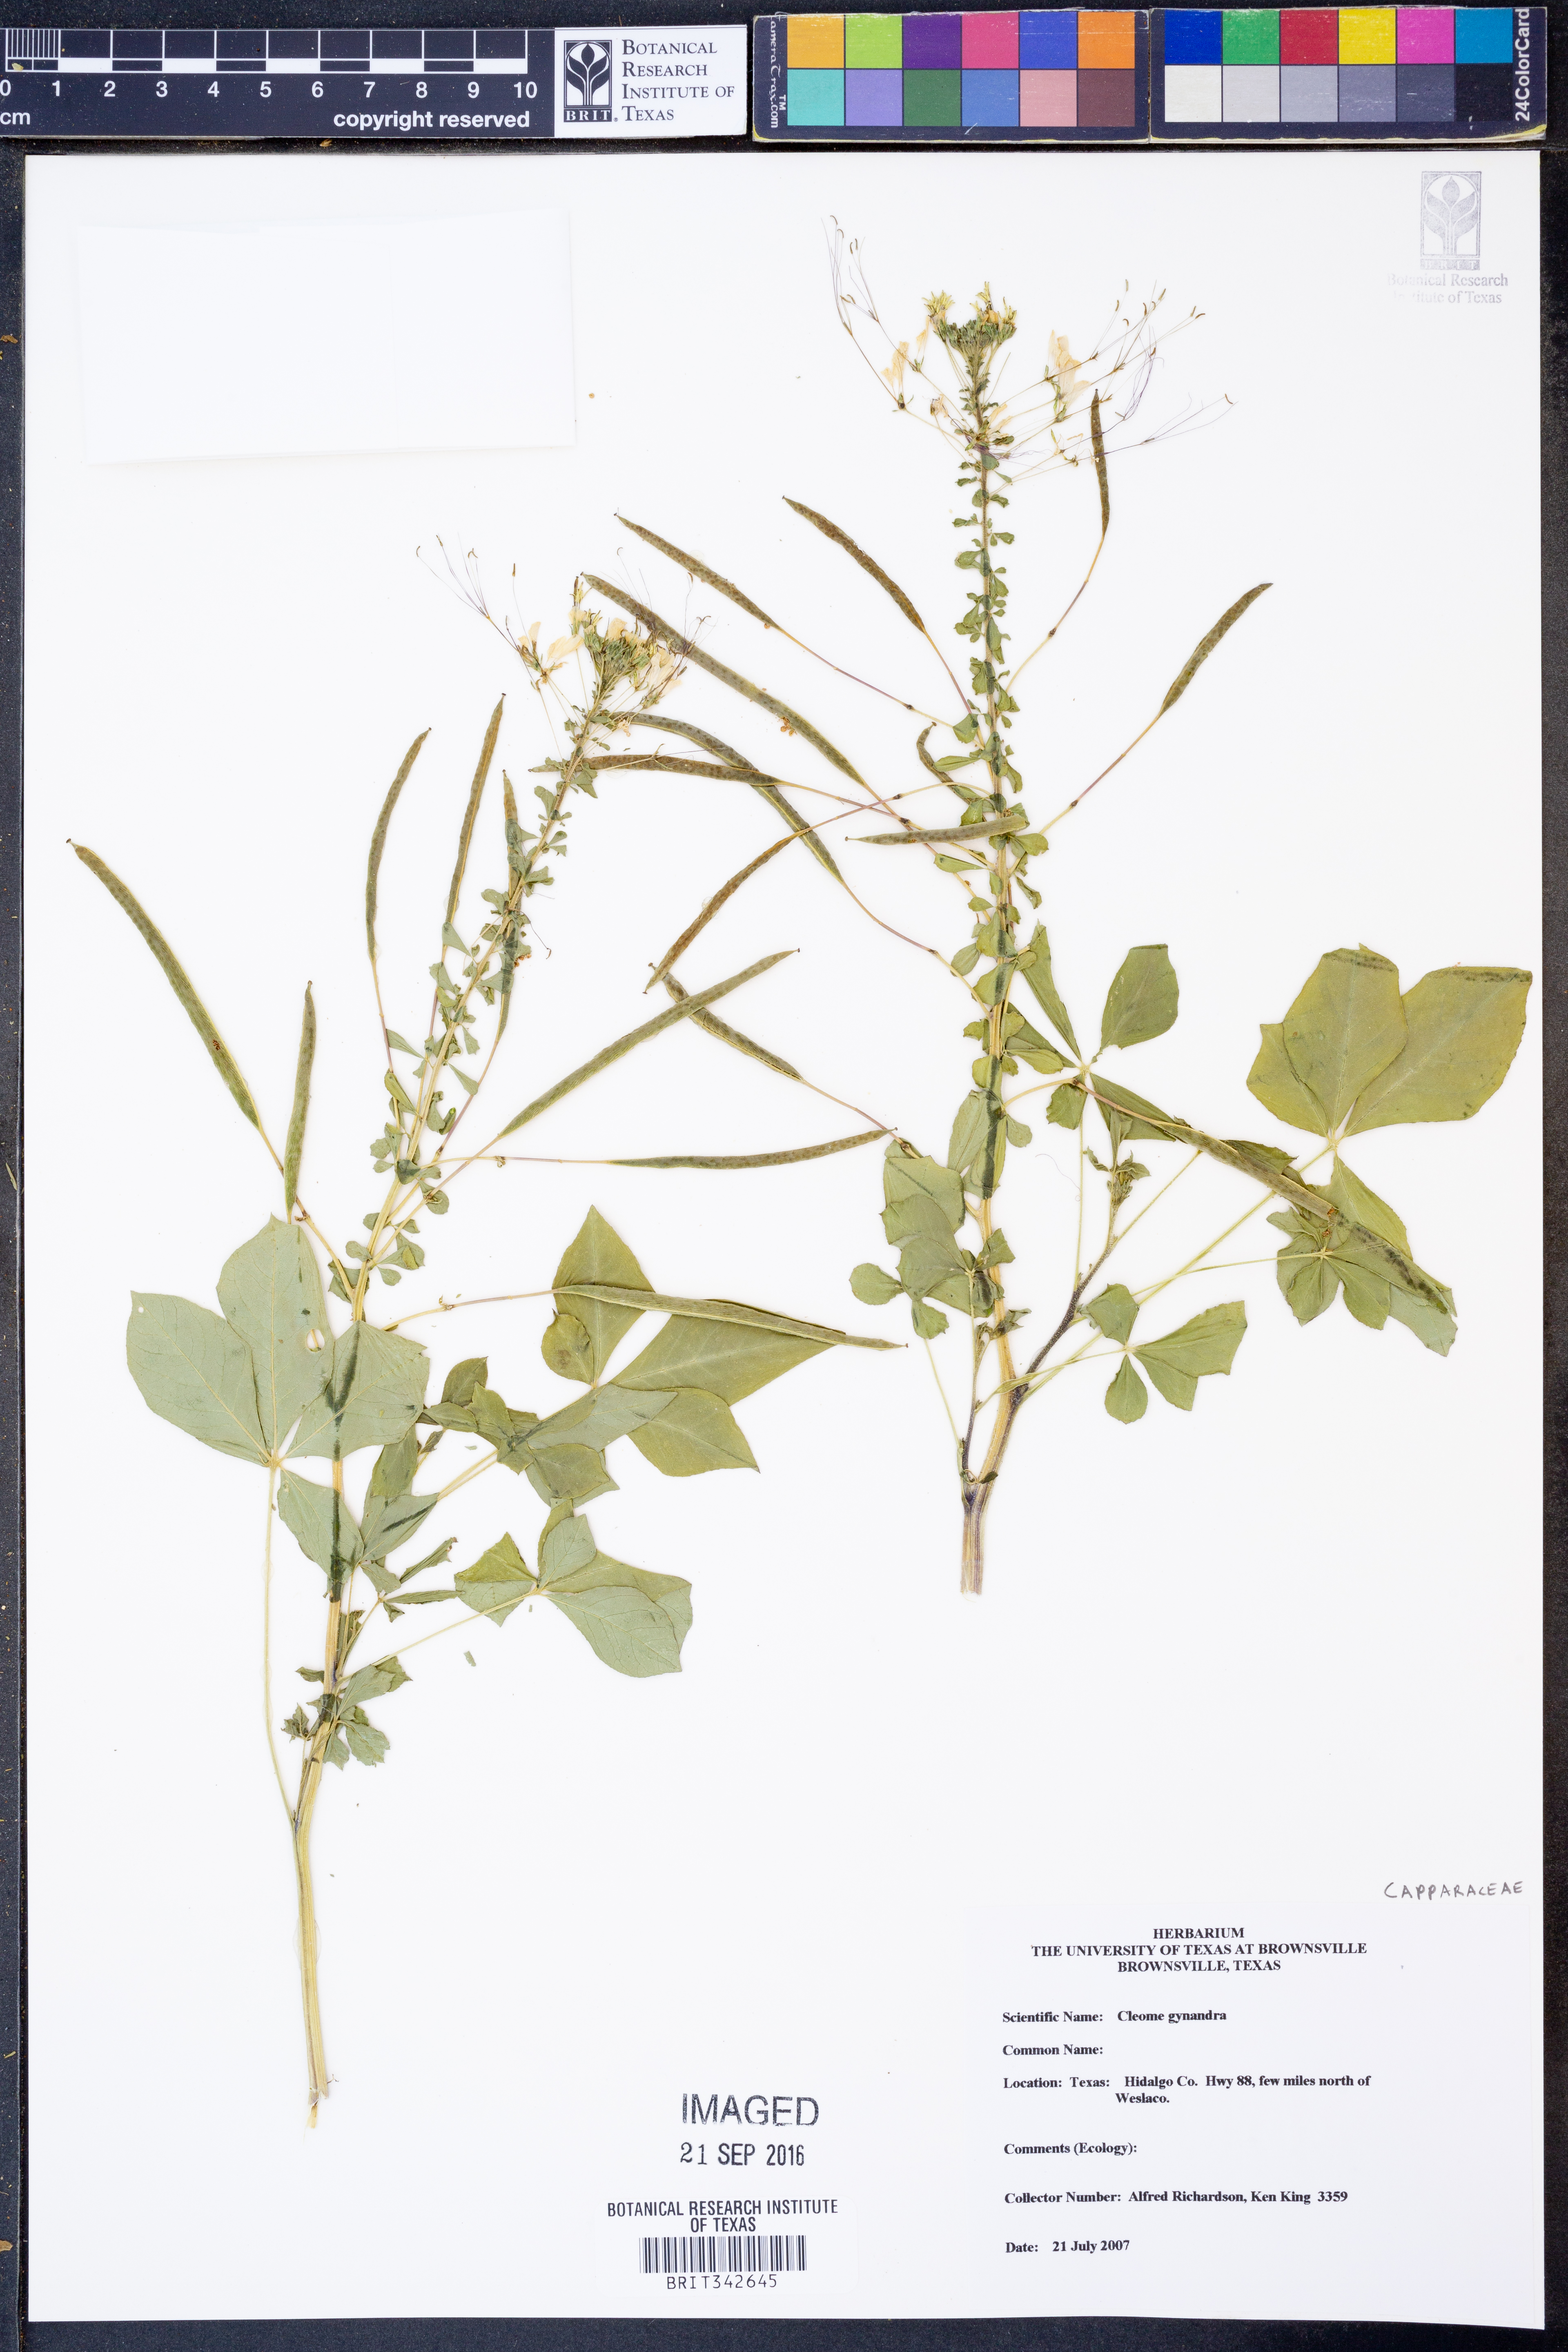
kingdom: Plantae
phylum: Tracheophyta
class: Magnoliopsida
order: Brassicales
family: Cleomaceae
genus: Gynandropsis
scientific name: Gynandropsis gynandra
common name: Spiderwisp
